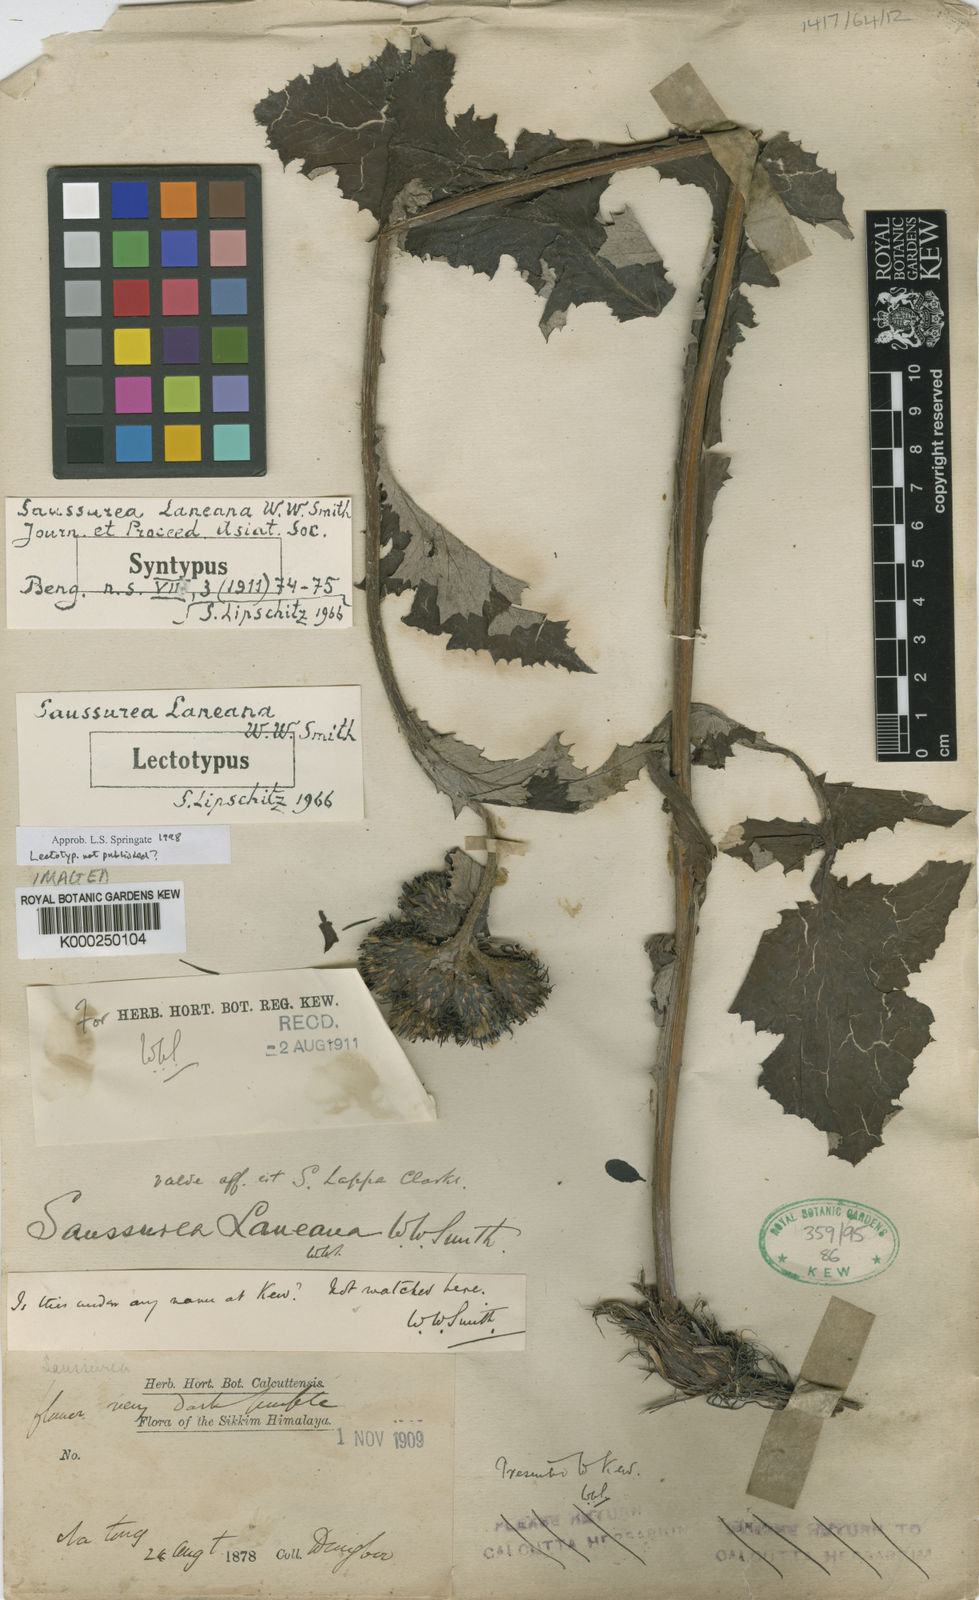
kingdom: Plantae
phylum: Tracheophyta
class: Magnoliopsida
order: Asterales
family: Asteraceae
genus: Saussurea
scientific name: Saussurea laneana
